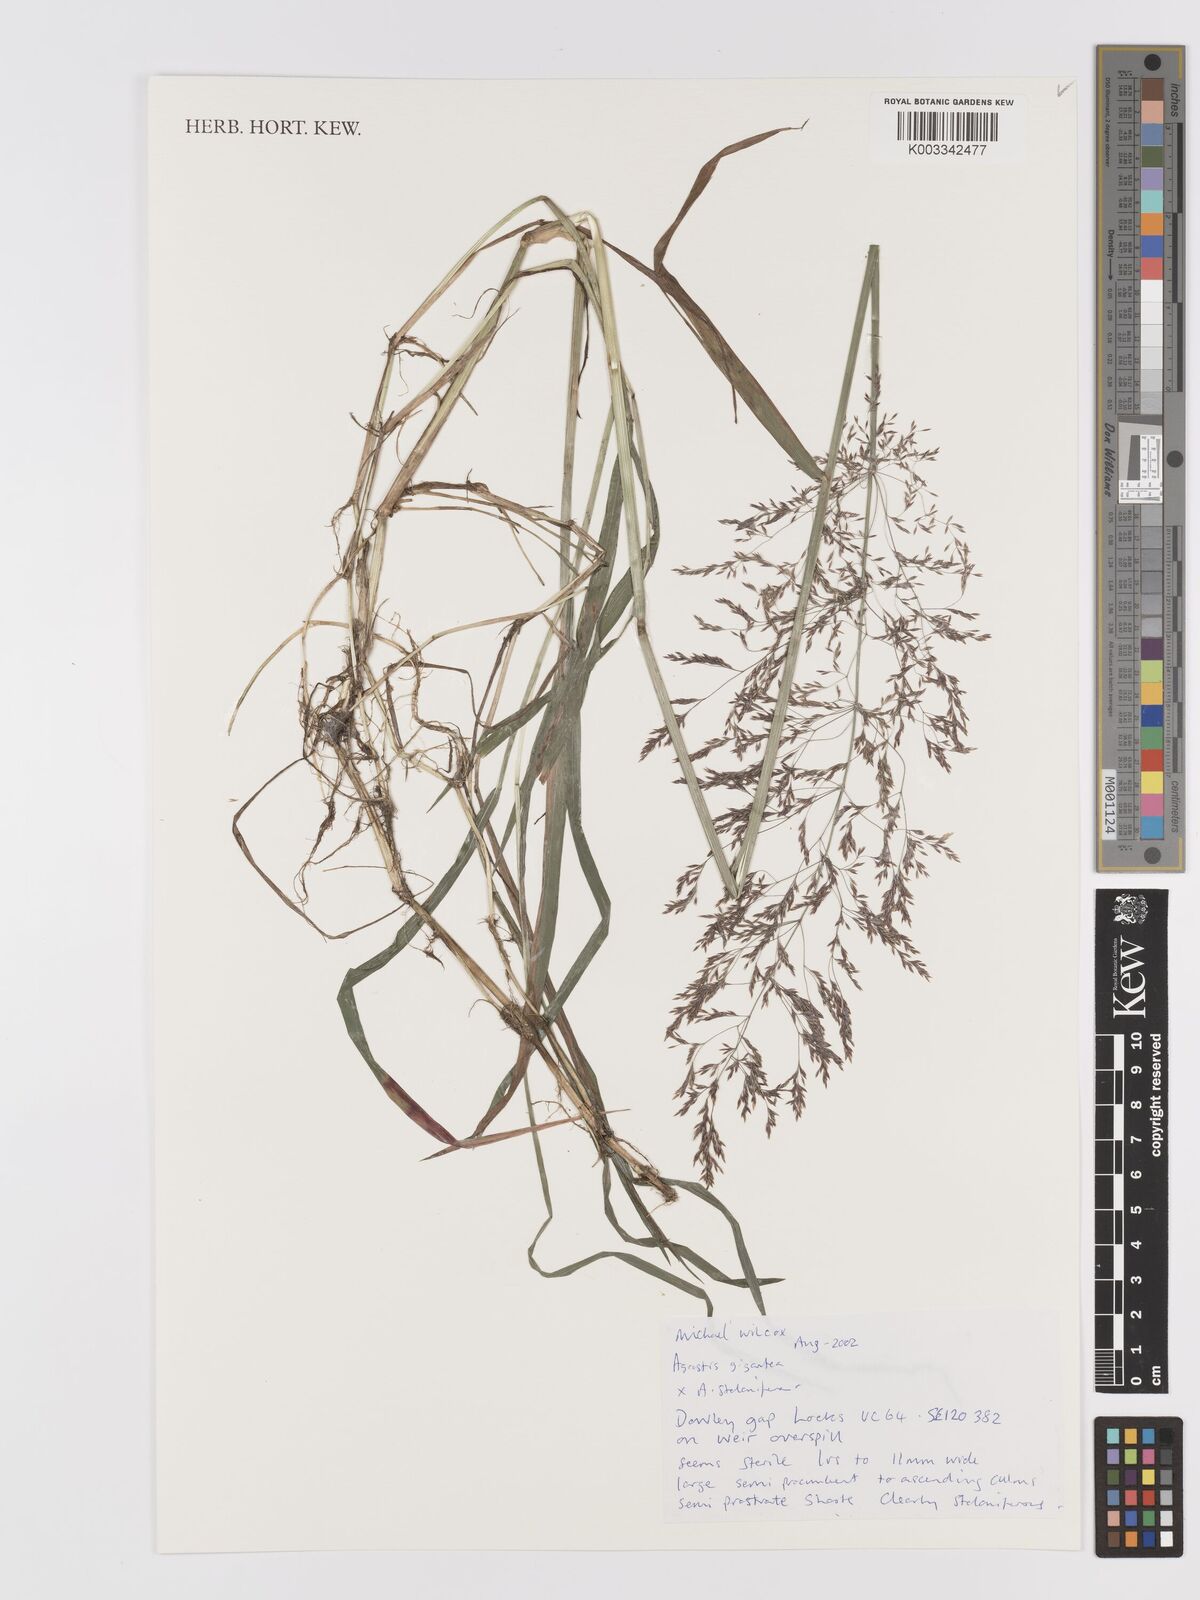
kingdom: Plantae
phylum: Tracheophyta
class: Liliopsida
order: Poales
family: Poaceae
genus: Agrostis
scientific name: Agrostis gigantea
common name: Black bent
